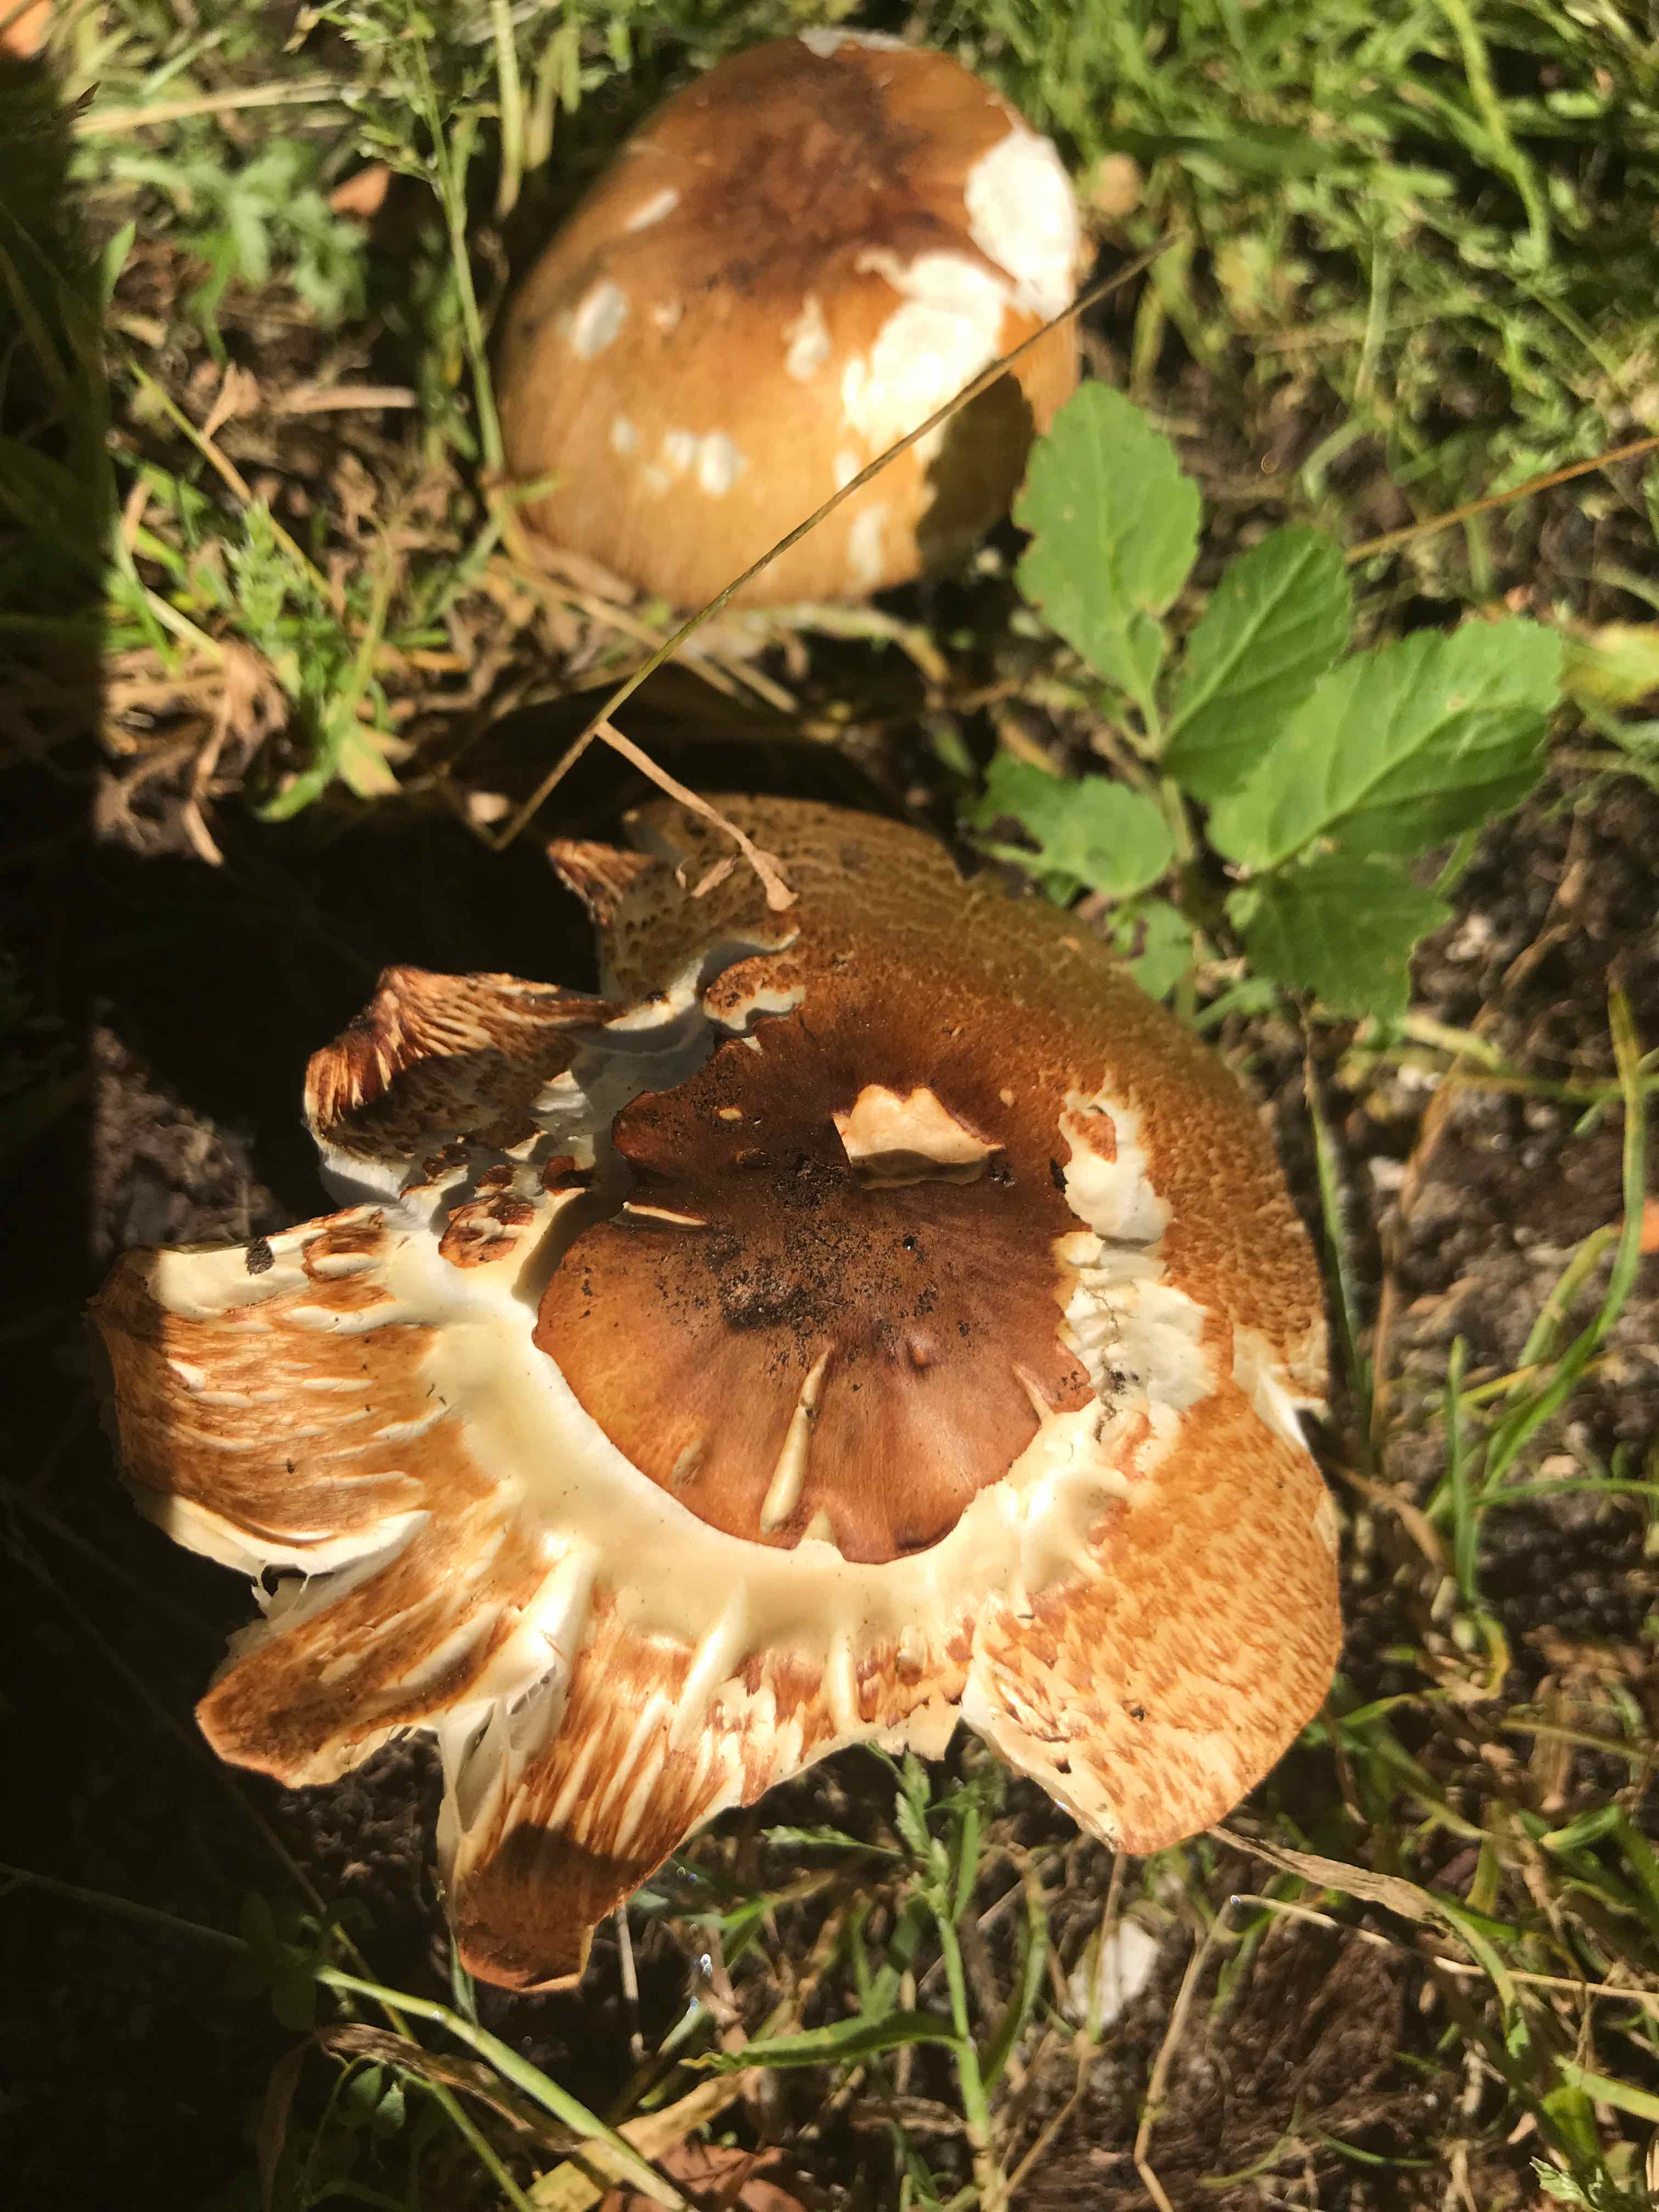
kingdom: Fungi
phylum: Basidiomycota
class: Agaricomycetes
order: Agaricales
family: Agaricaceae
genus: Agaricus
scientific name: Agaricus augustus
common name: prægtig champignon
